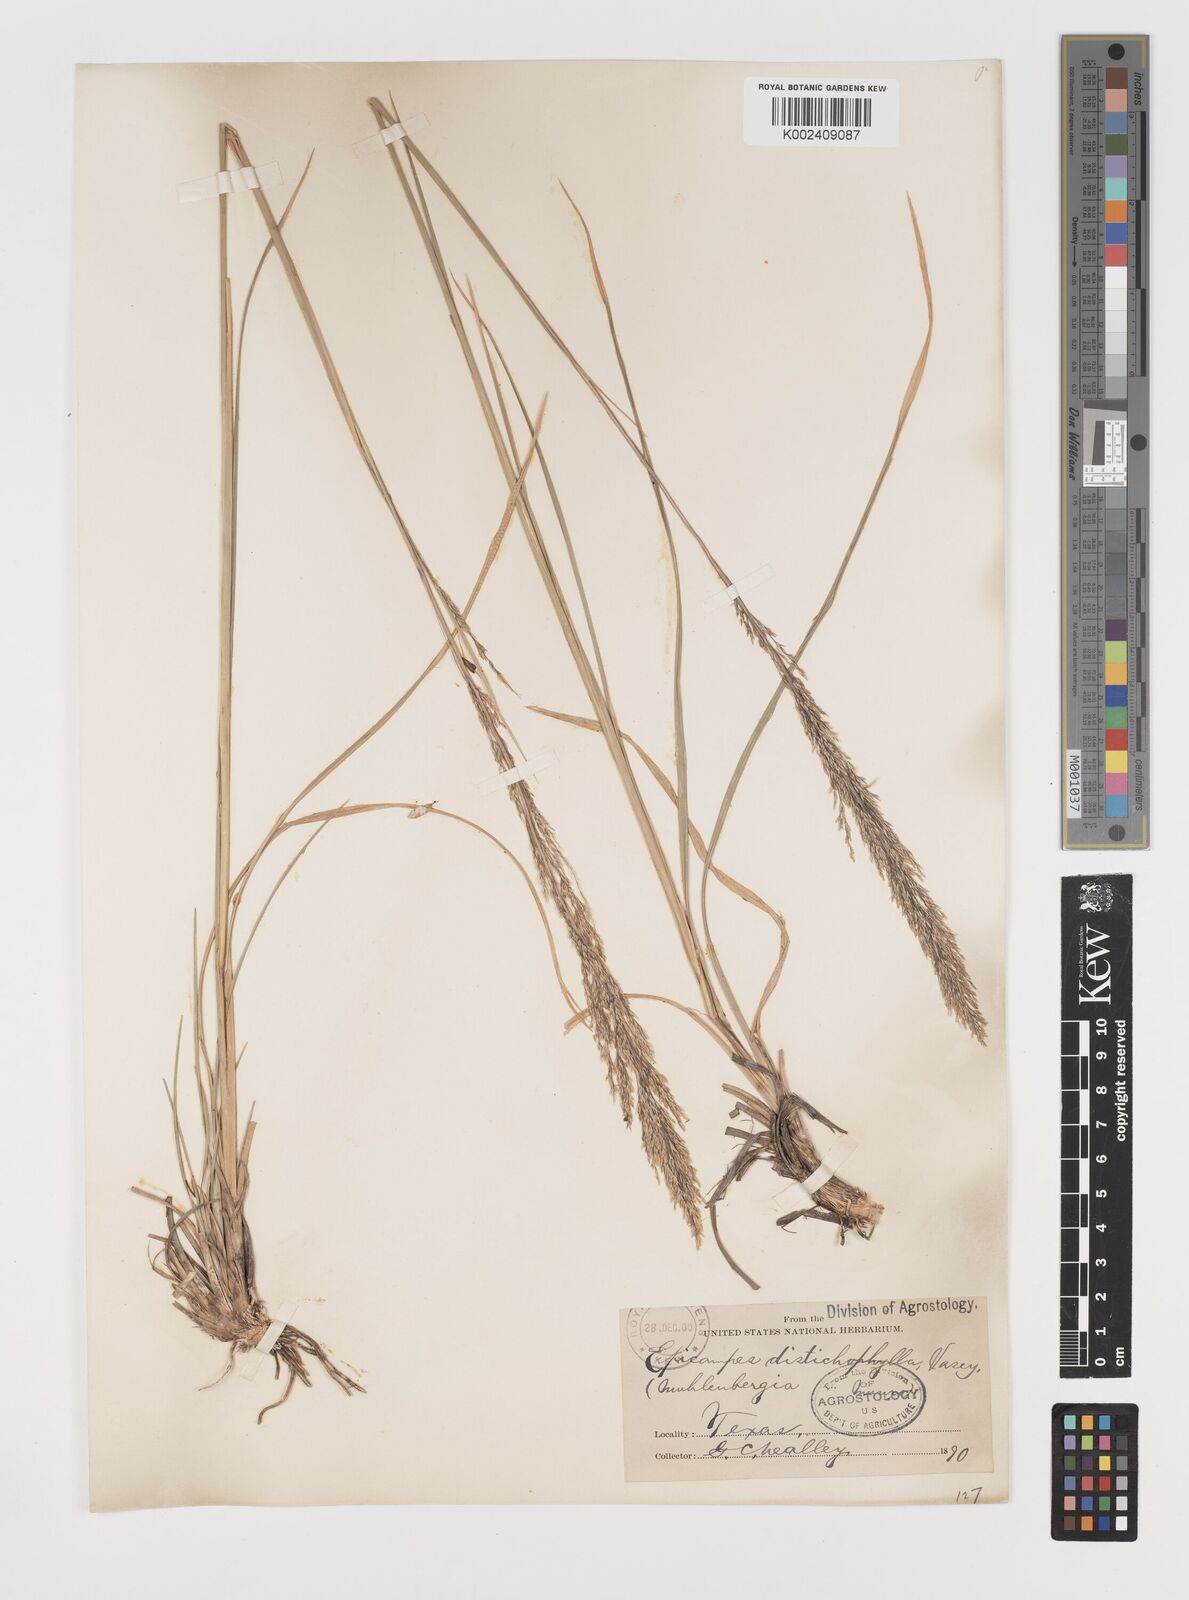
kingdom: Plantae
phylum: Tracheophyta
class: Liliopsida
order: Poales
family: Poaceae
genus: Muhlenbergia
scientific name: Muhlenbergia lindheimeri
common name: Lindheimer's muhly
